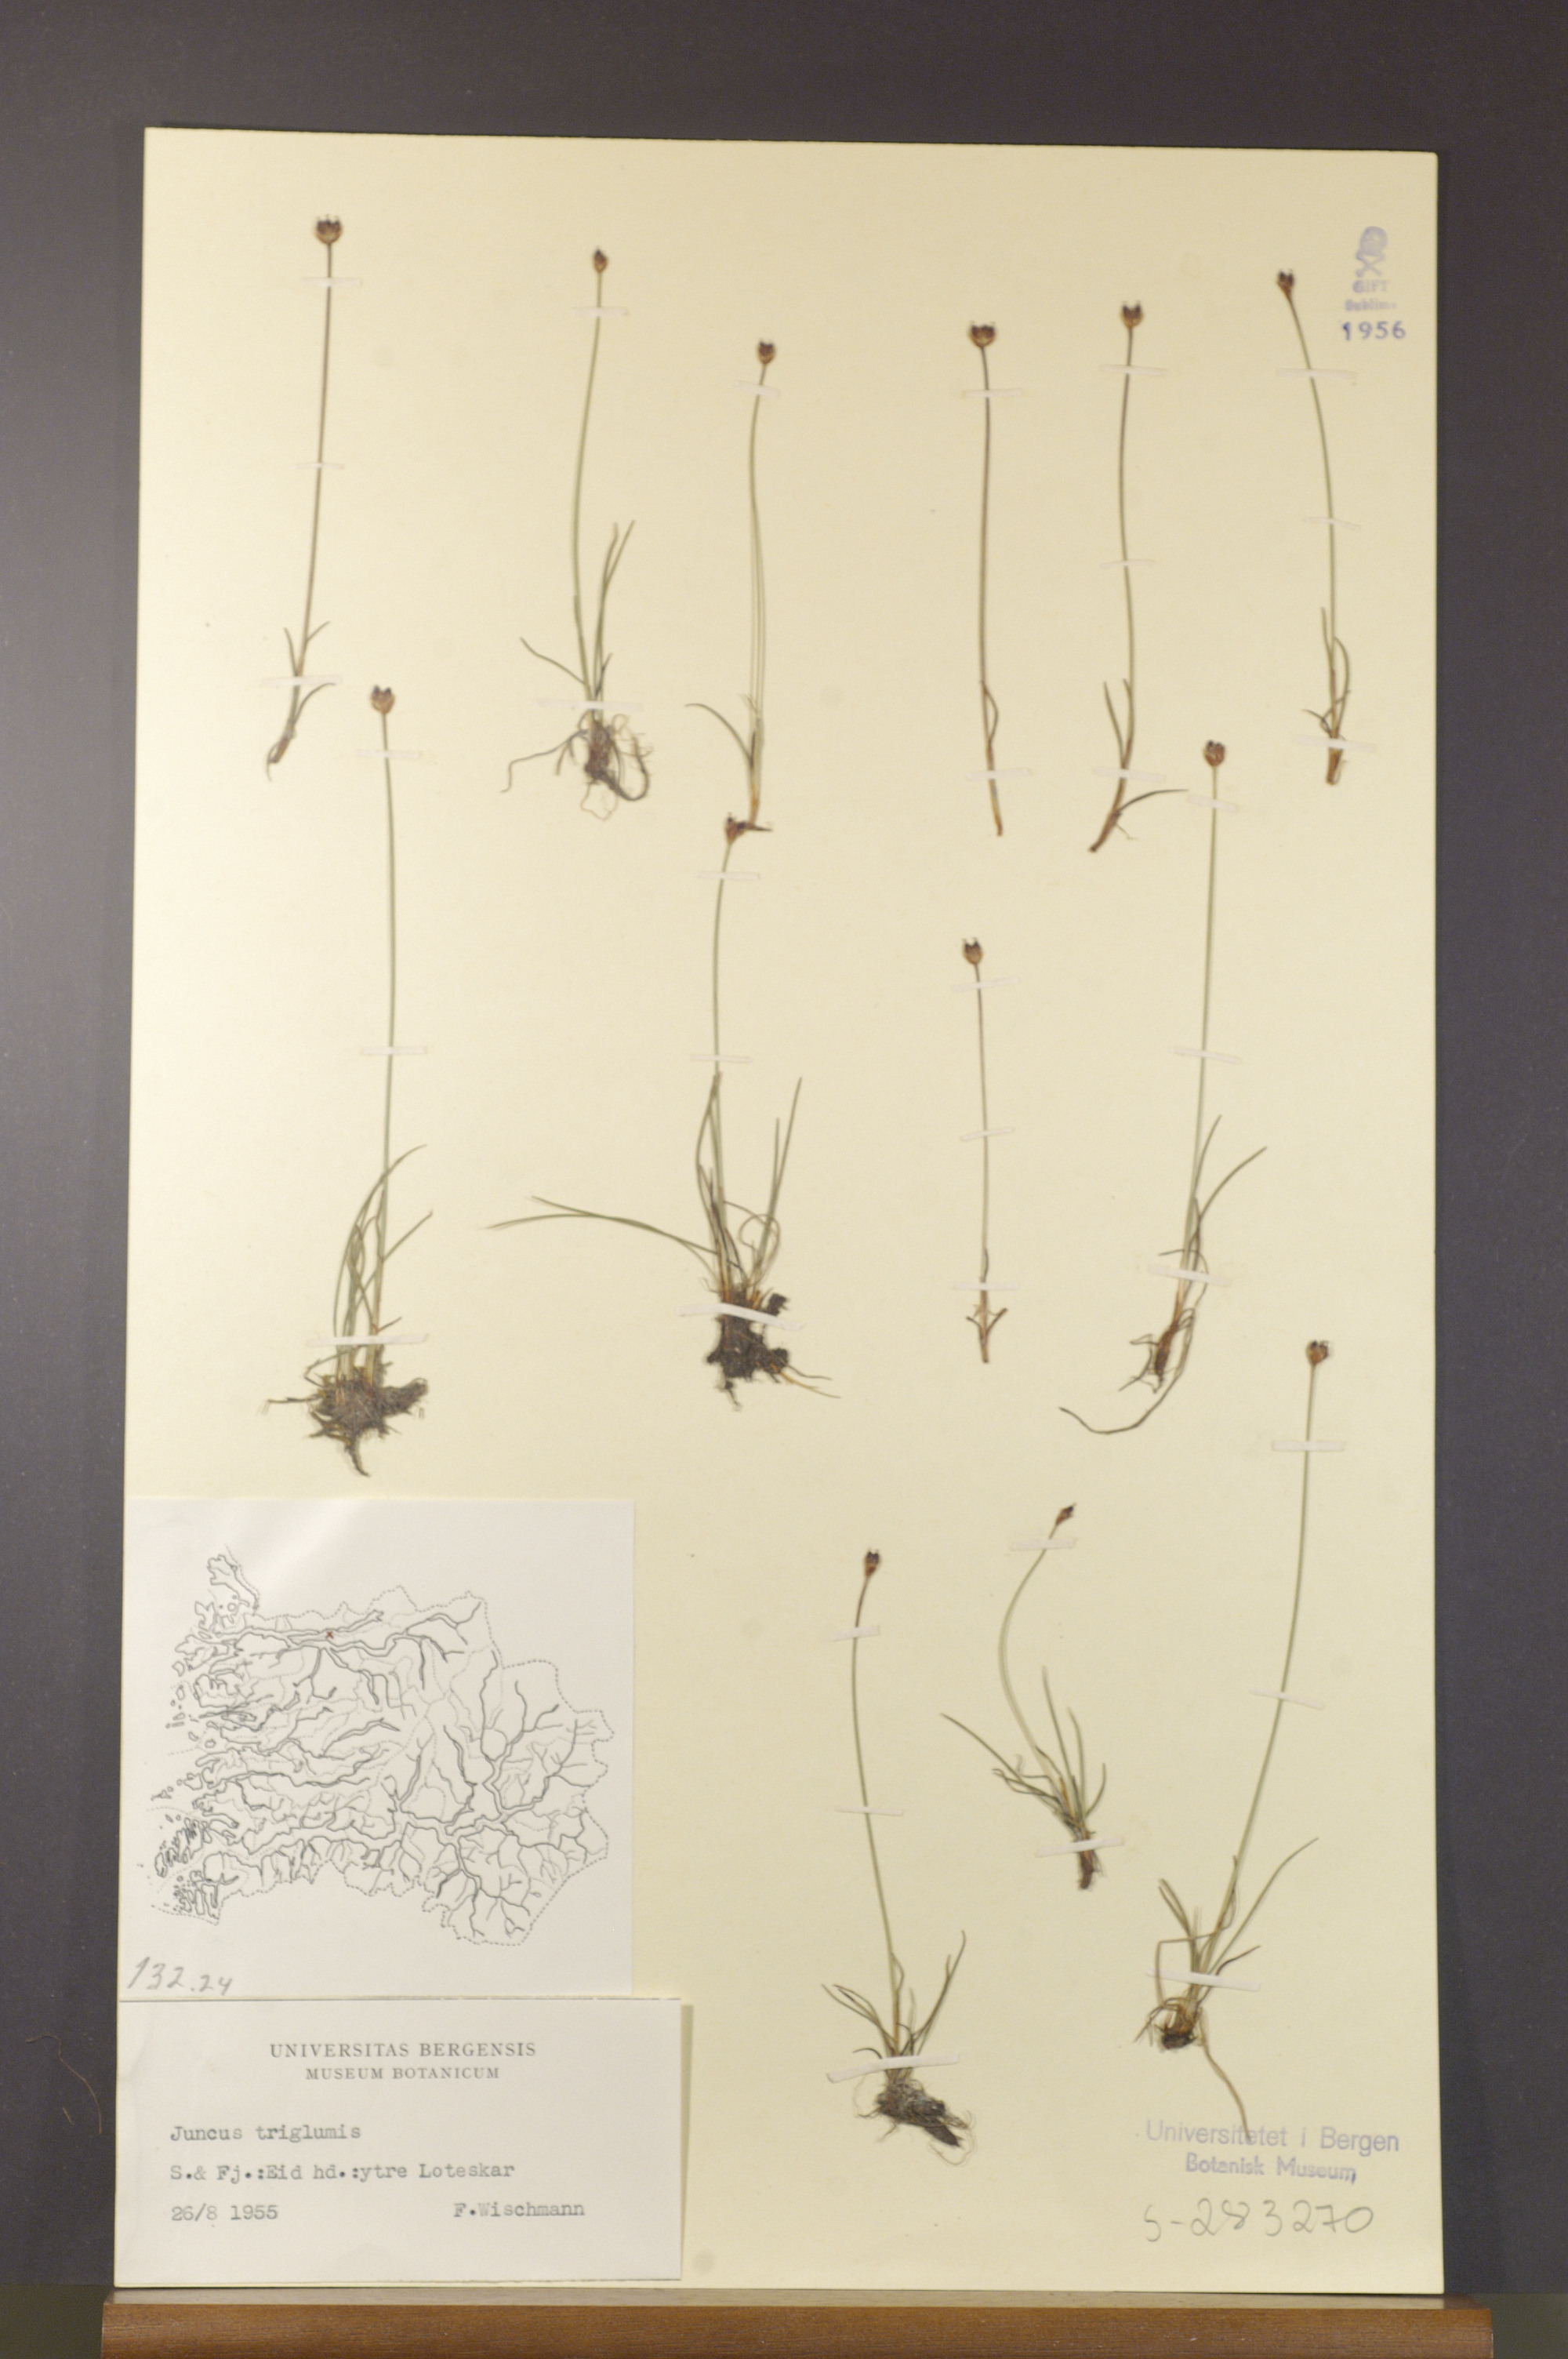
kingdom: Plantae
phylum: Tracheophyta
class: Liliopsida
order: Poales
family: Juncaceae
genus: Juncus
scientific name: Juncus triglumis
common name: Three-flowered rush
